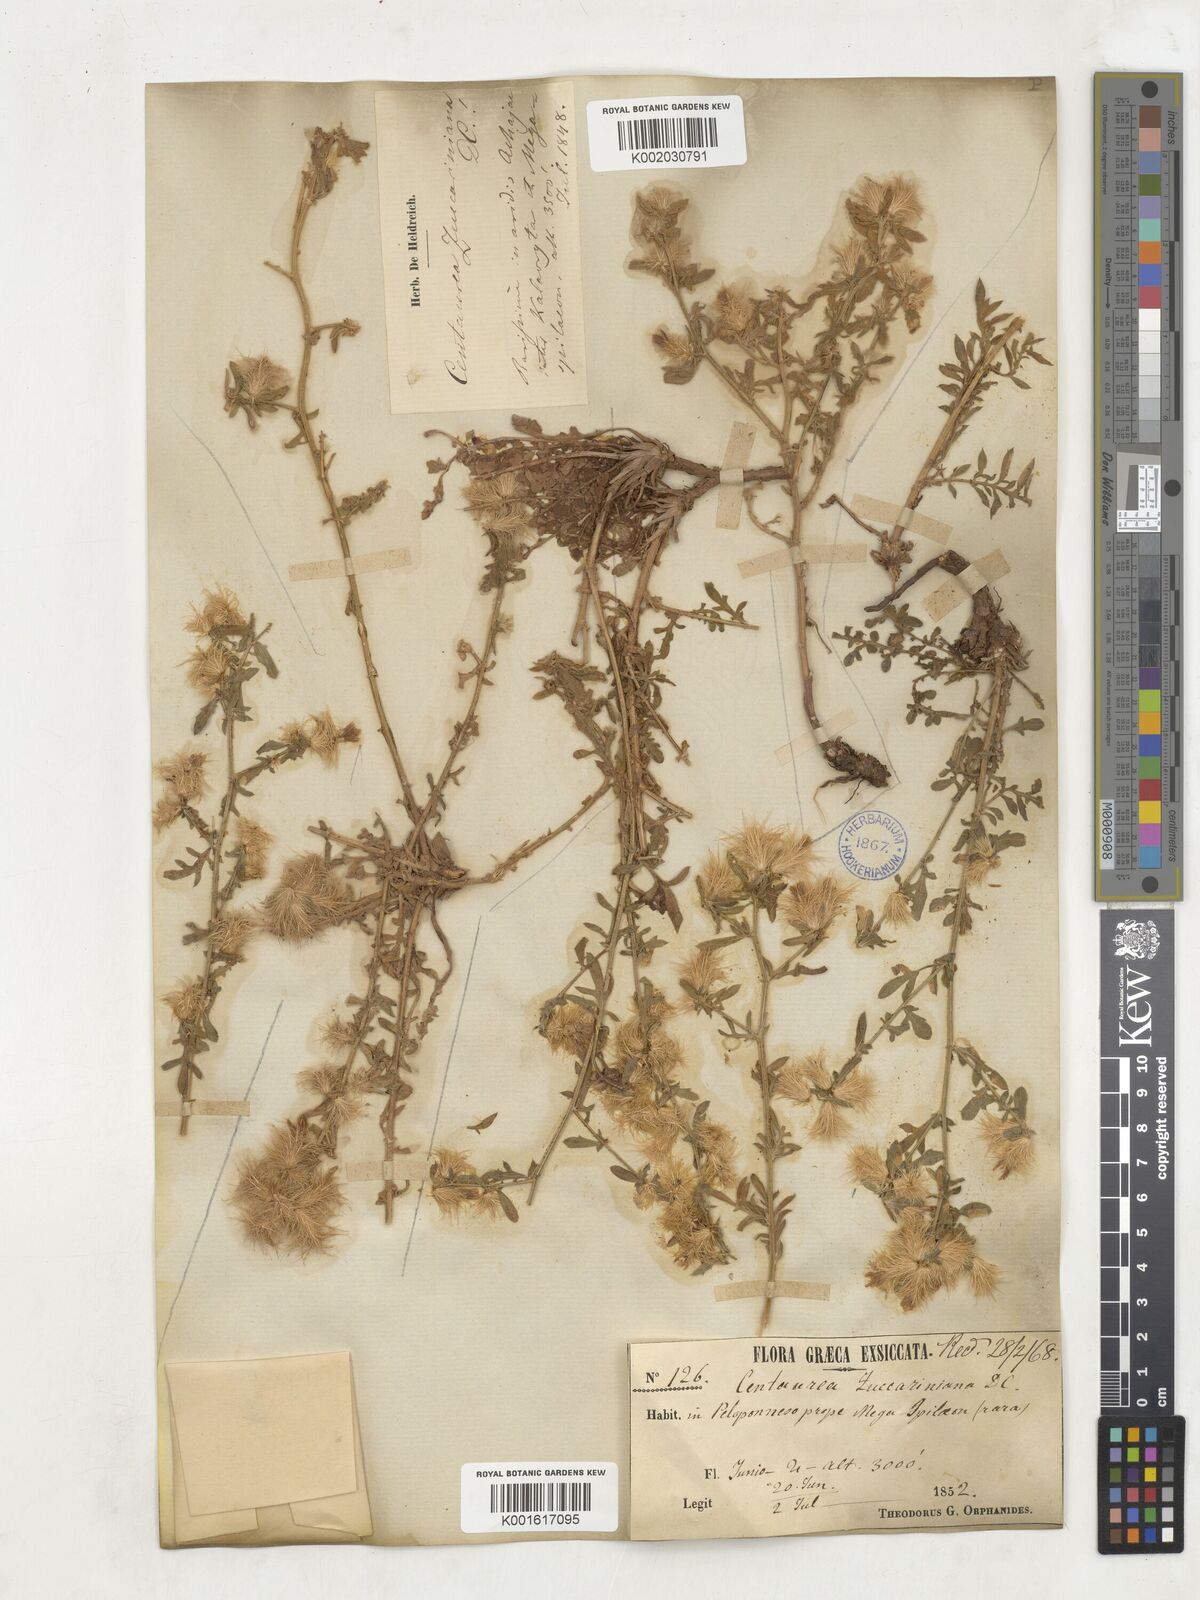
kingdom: Plantae
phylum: Tracheophyta
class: Magnoliopsida
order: Asterales
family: Asteraceae
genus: Centaurea
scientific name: Centaurea zuccariniana
